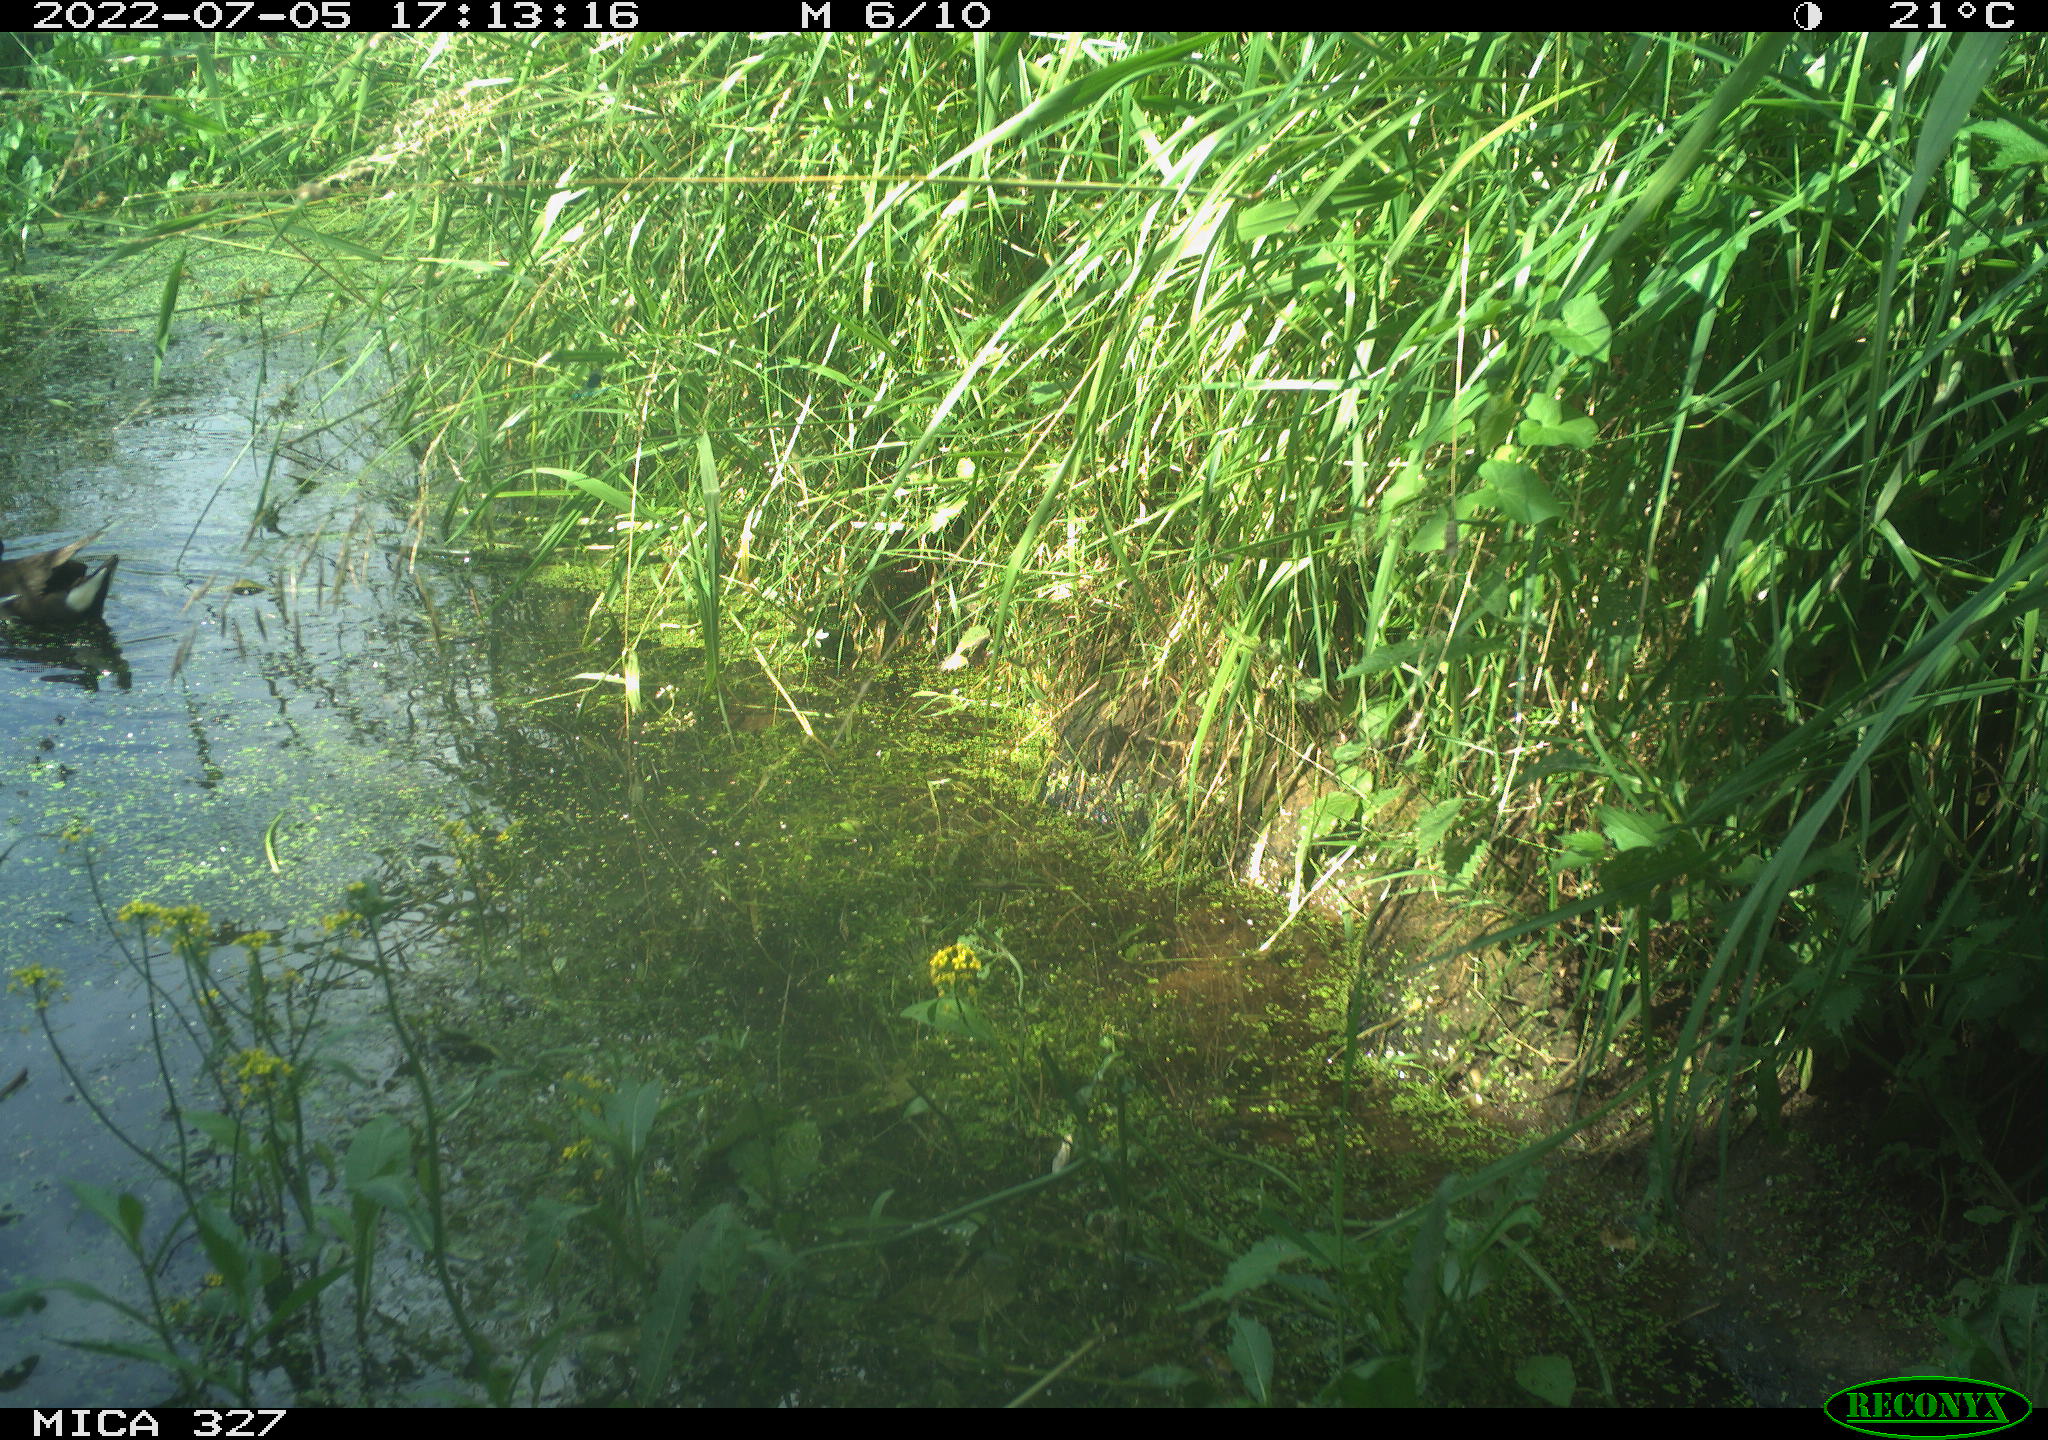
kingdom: Animalia
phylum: Chordata
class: Aves
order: Gruiformes
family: Rallidae
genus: Gallinula
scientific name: Gallinula chloropus
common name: Common moorhen
